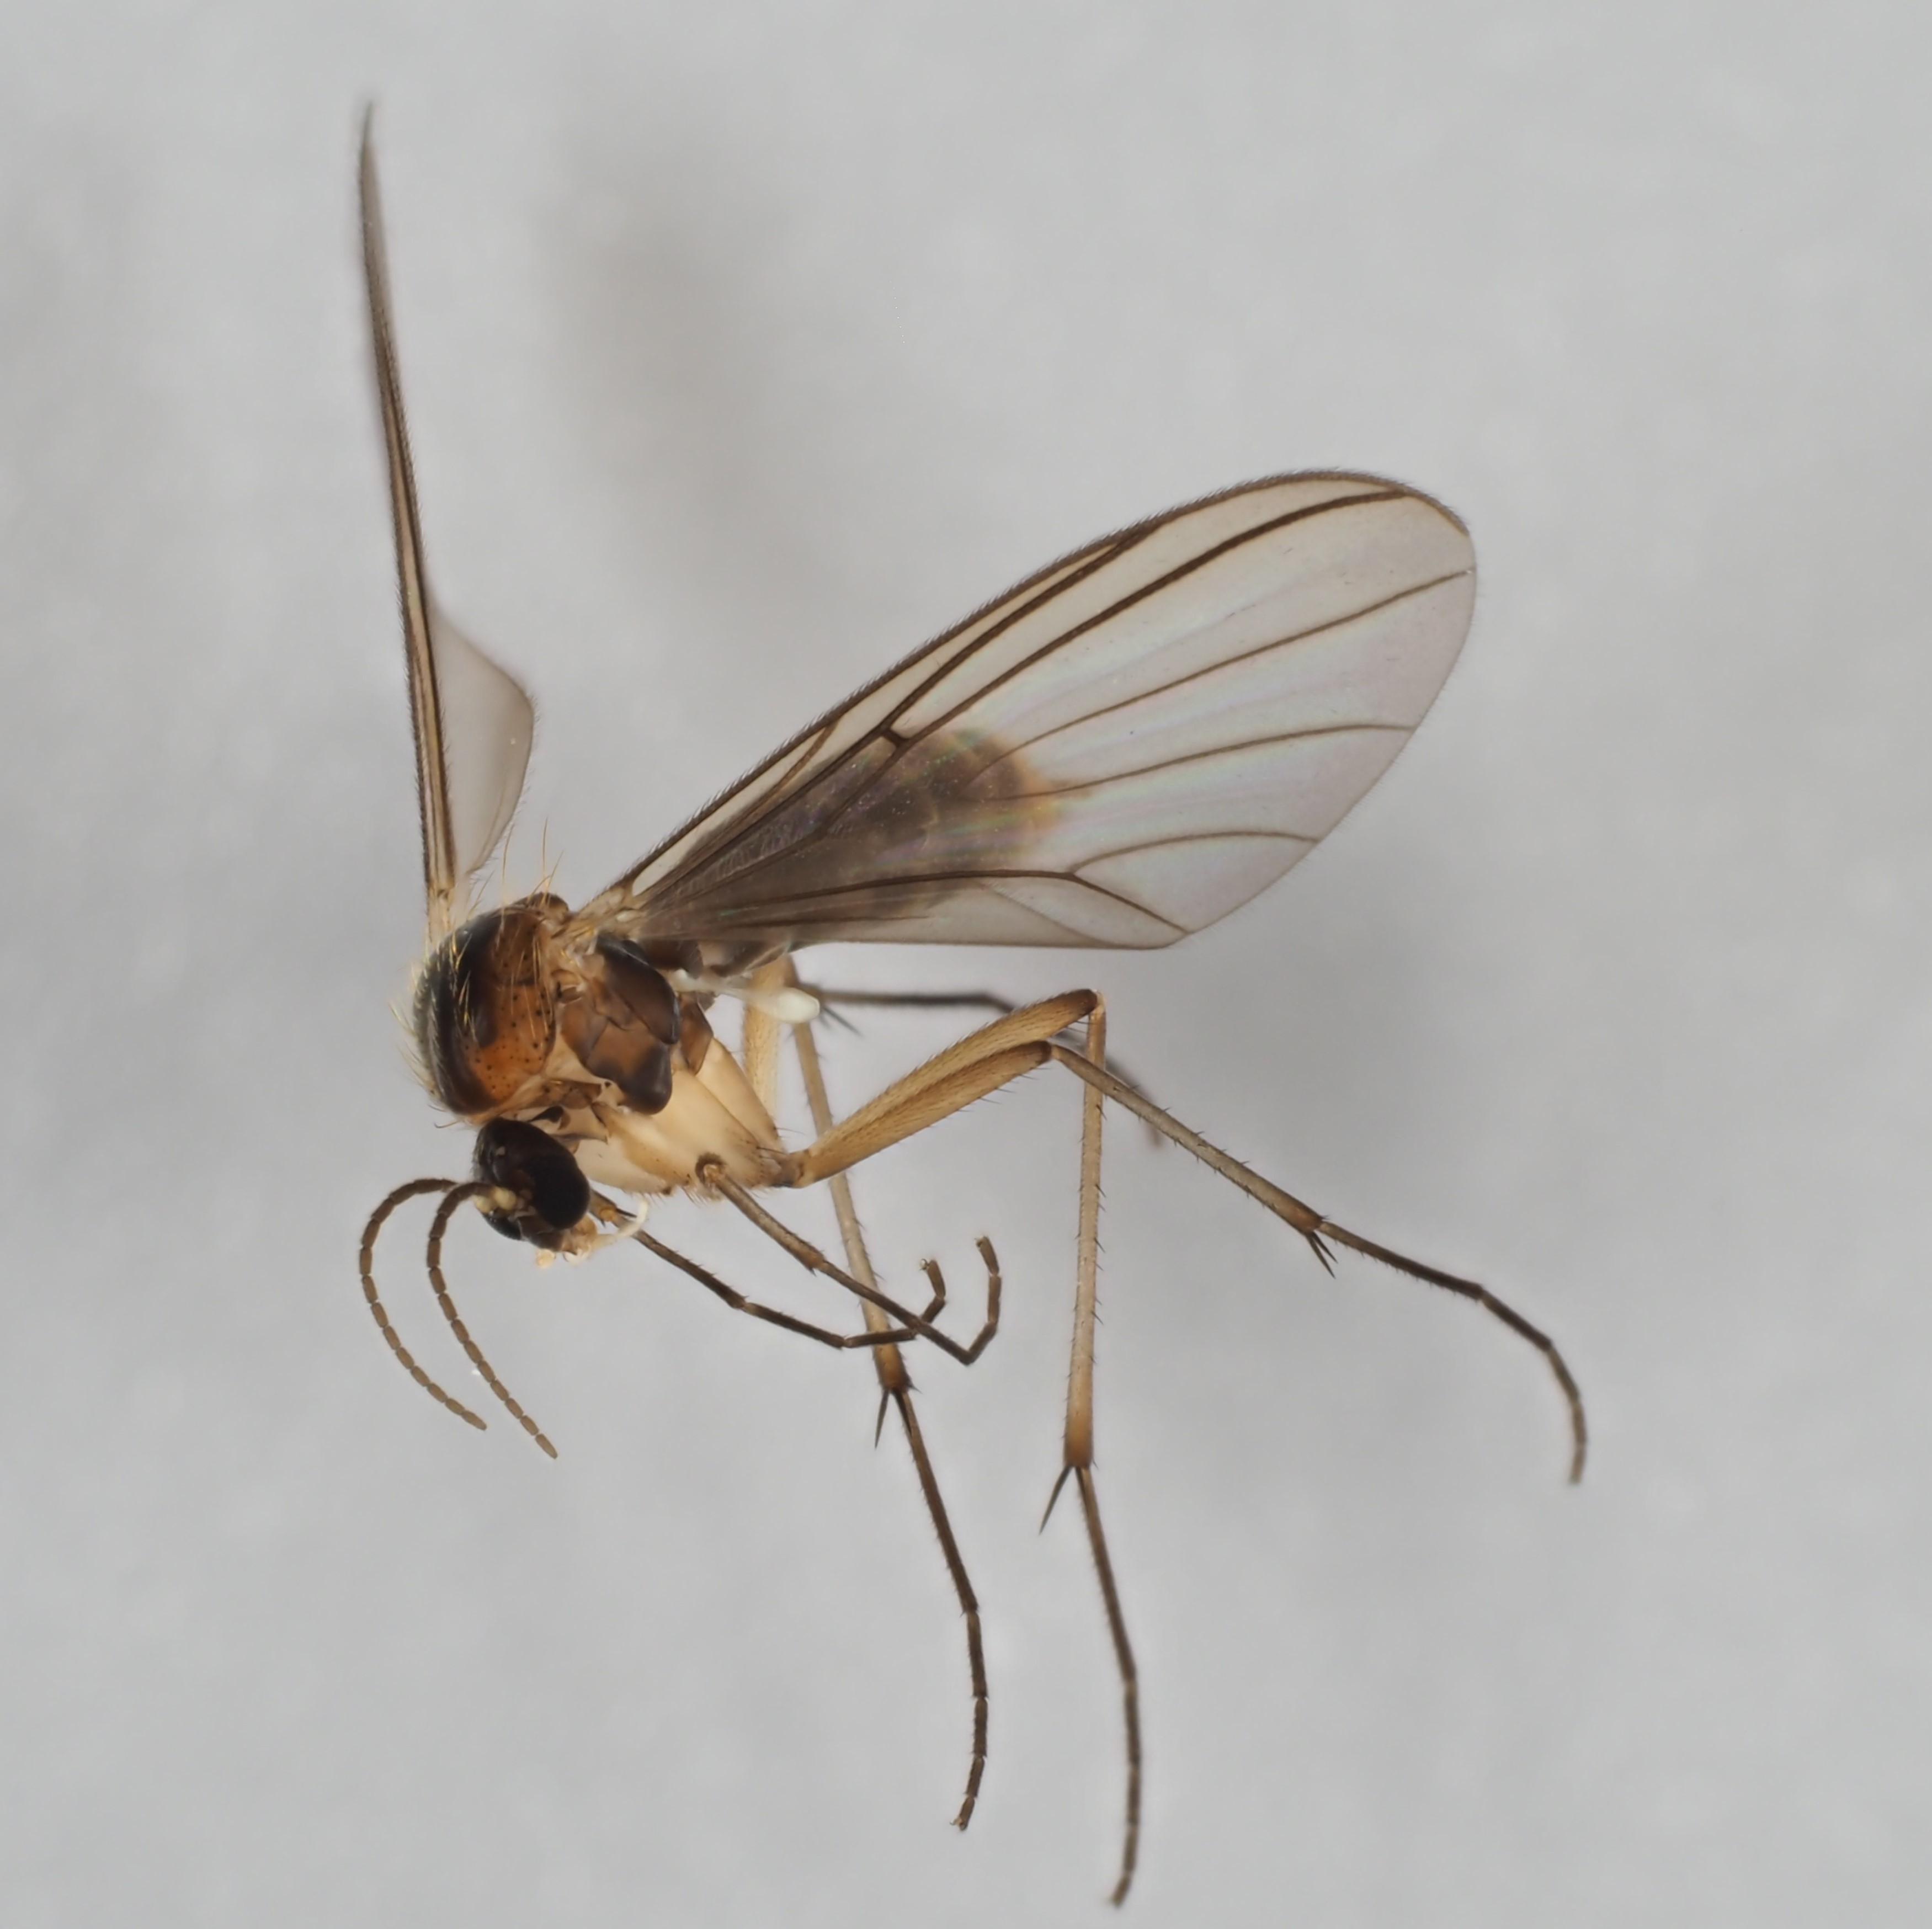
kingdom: Animalia
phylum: Arthropoda
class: Insecta
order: Diptera
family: Mycetophilidae
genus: Coelosia
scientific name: Coelosia fusca
